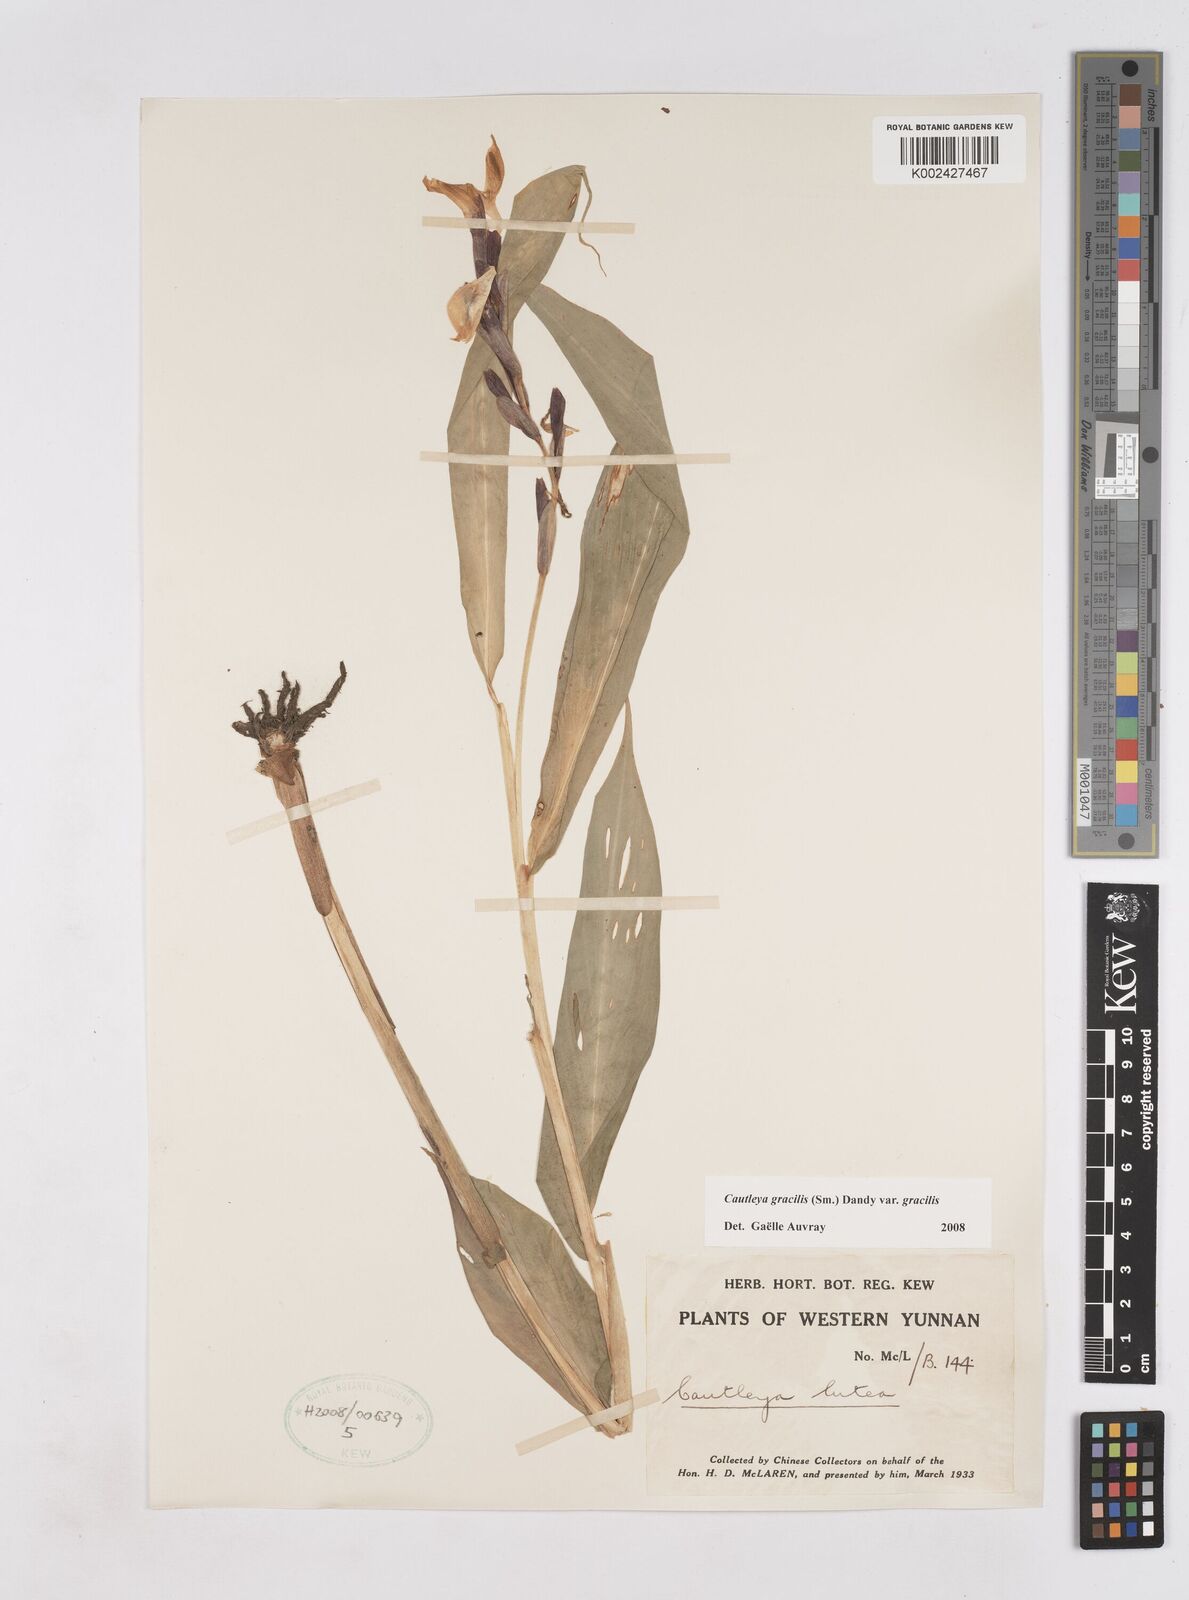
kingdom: Plantae
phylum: Tracheophyta
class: Liliopsida
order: Zingiberales
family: Zingiberaceae
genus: Cautleya
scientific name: Cautleya gracilis
